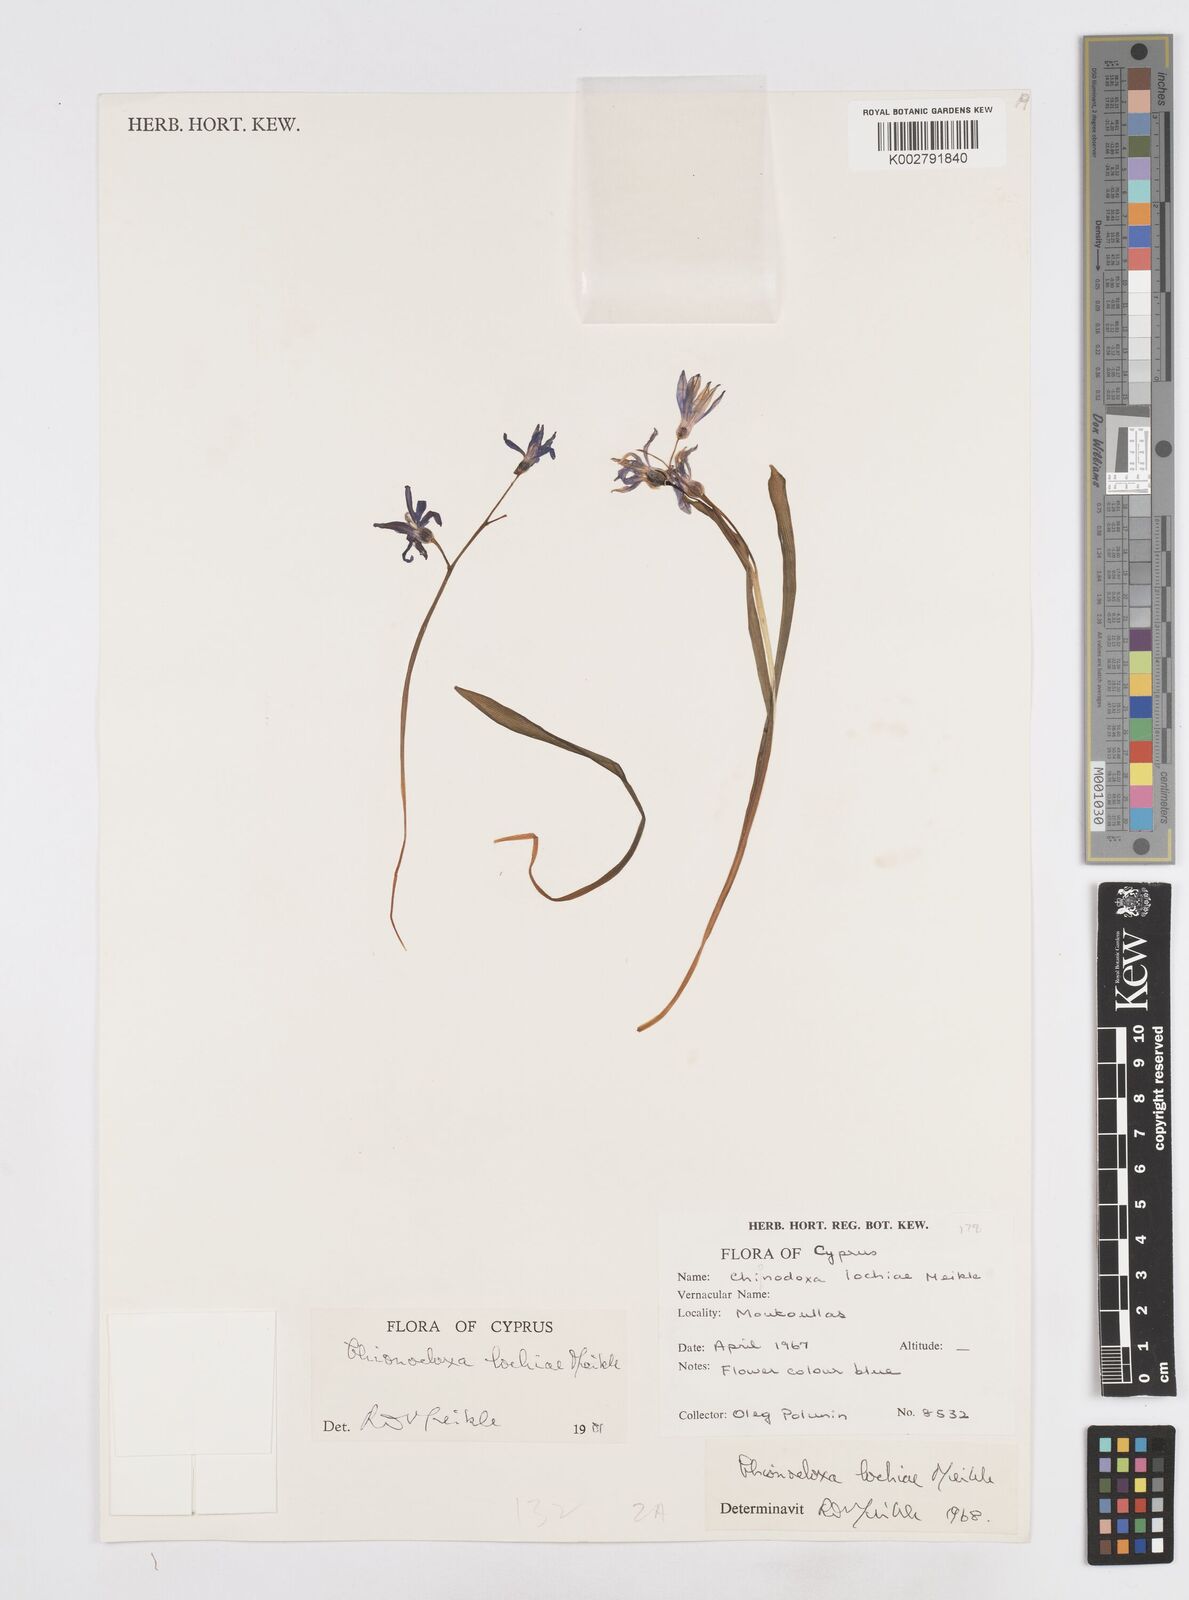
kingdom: Plantae
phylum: Tracheophyta
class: Liliopsida
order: Asparagales
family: Asparagaceae
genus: Scilla
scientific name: Scilla lochiae
